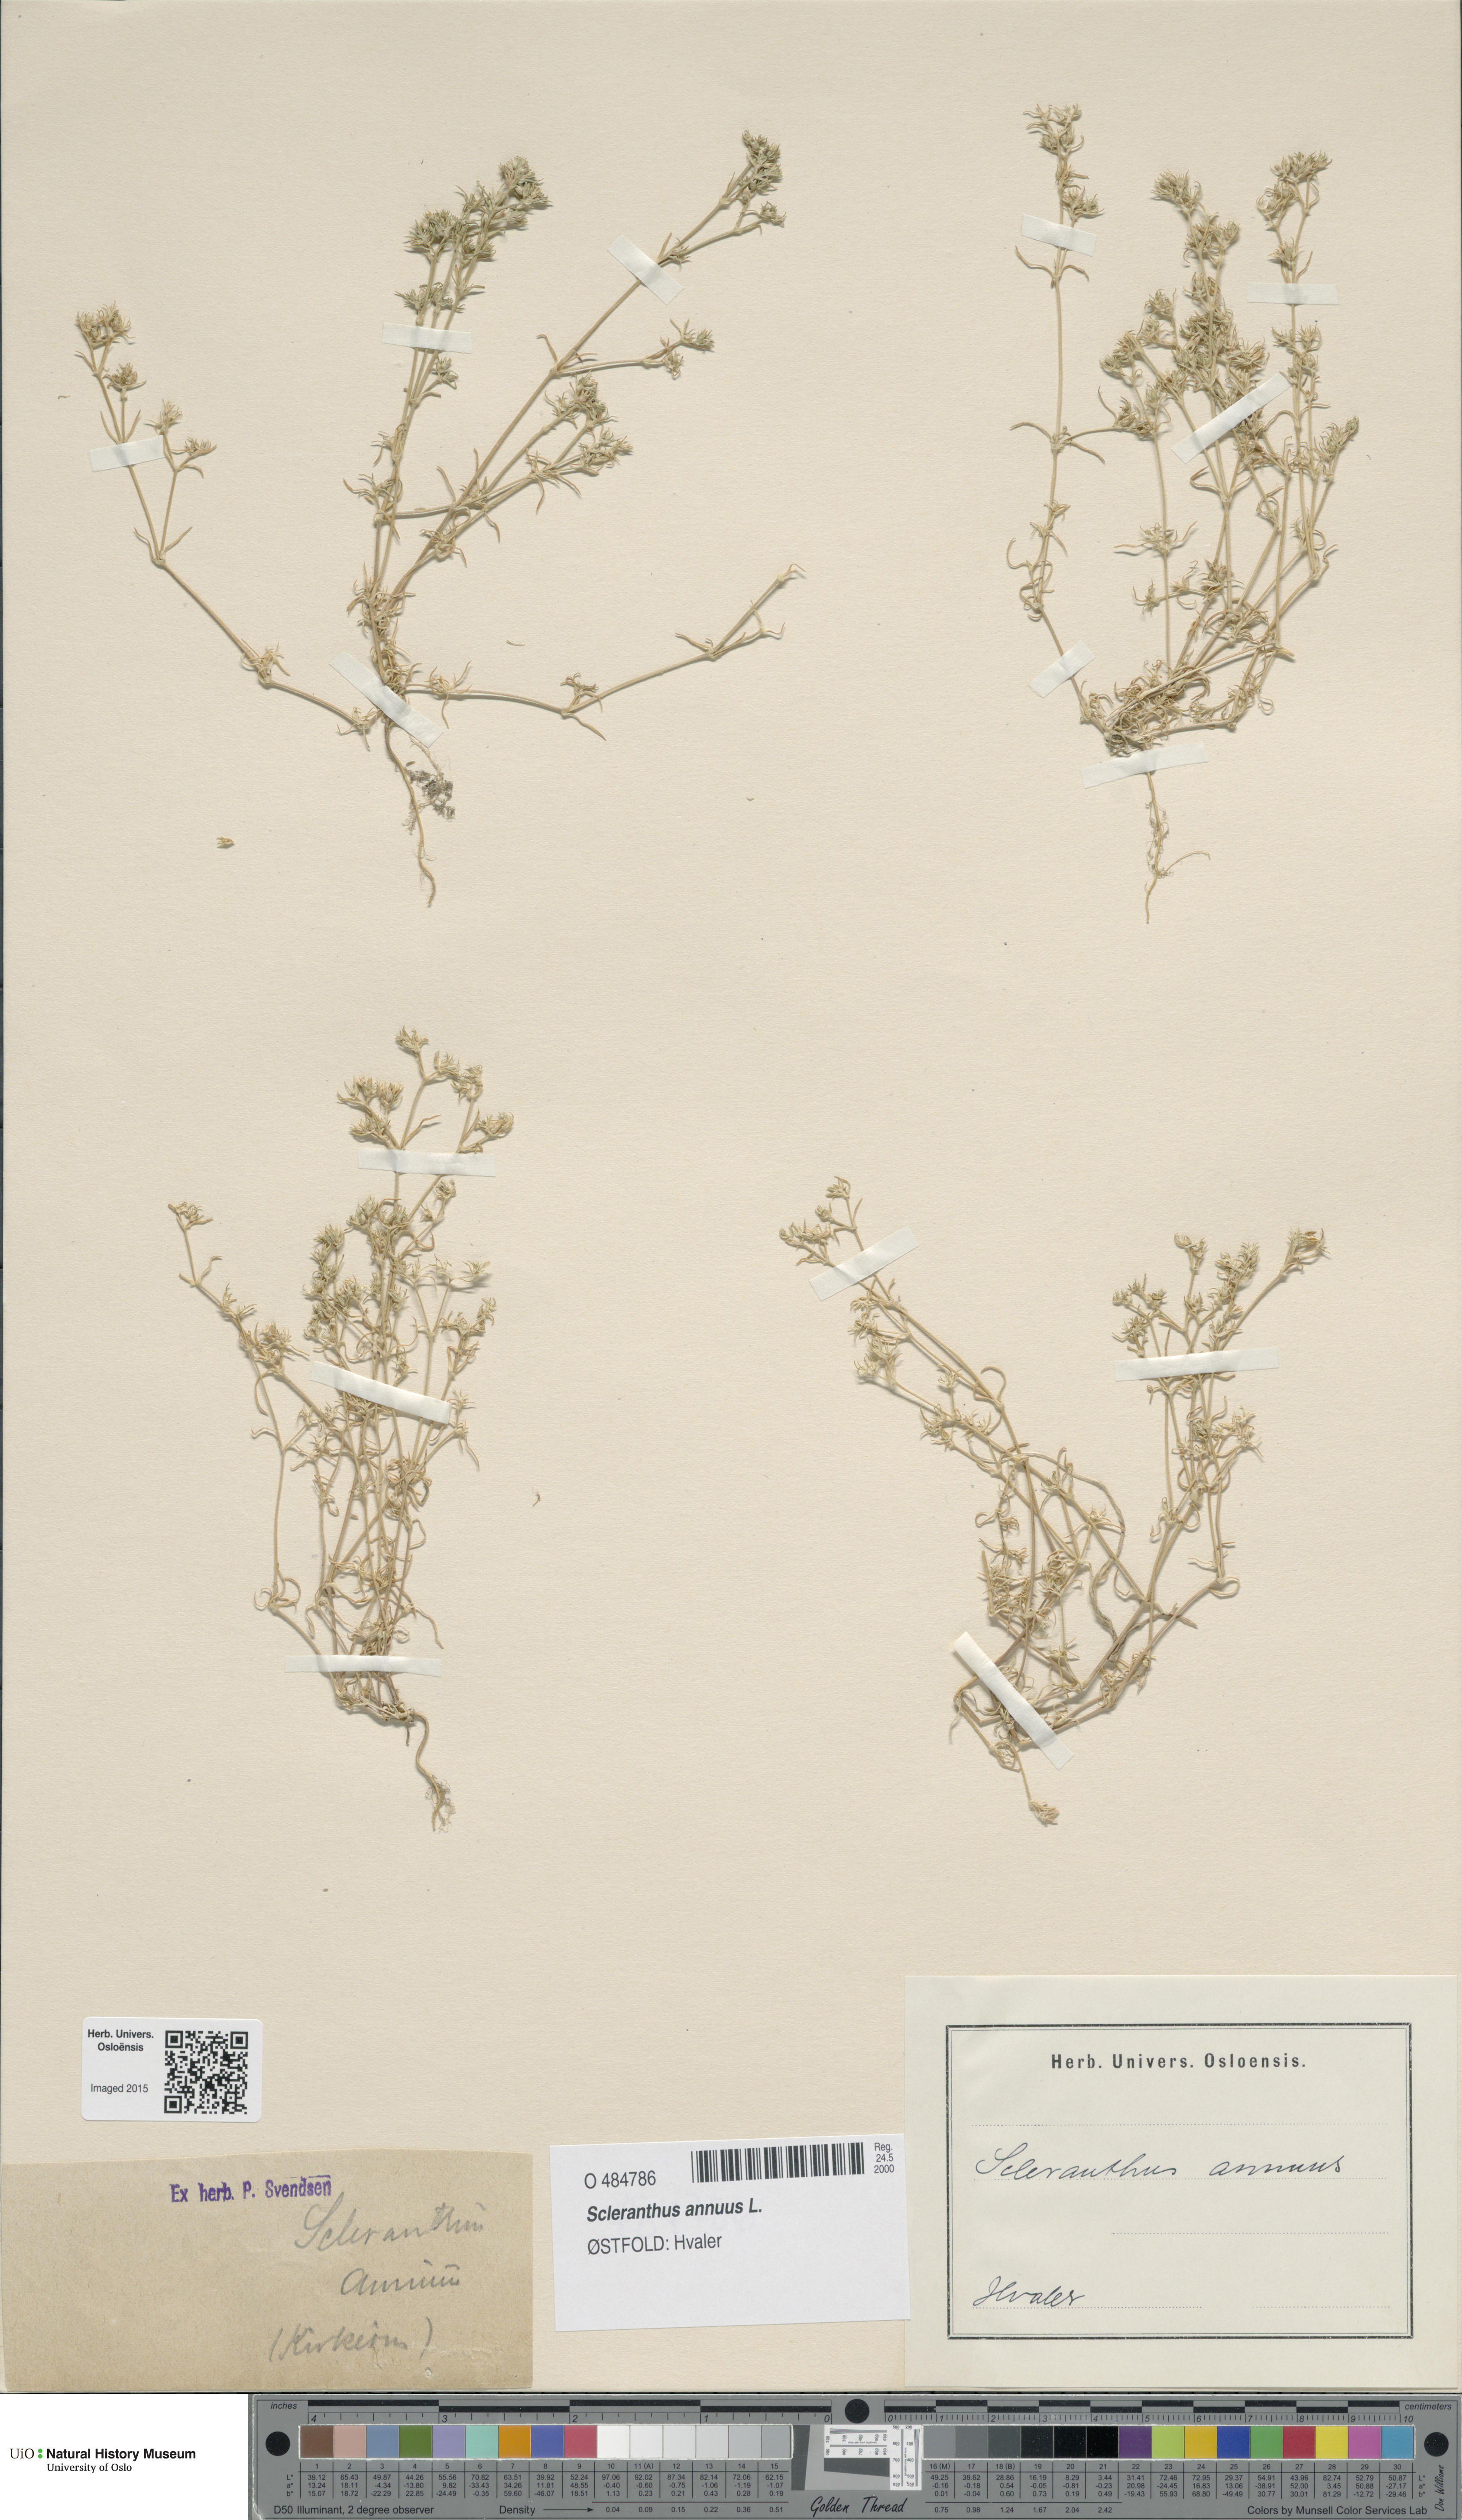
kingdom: Plantae
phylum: Tracheophyta
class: Magnoliopsida
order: Caryophyllales
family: Caryophyllaceae
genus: Scleranthus
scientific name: Scleranthus annuus
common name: Annual knawel
